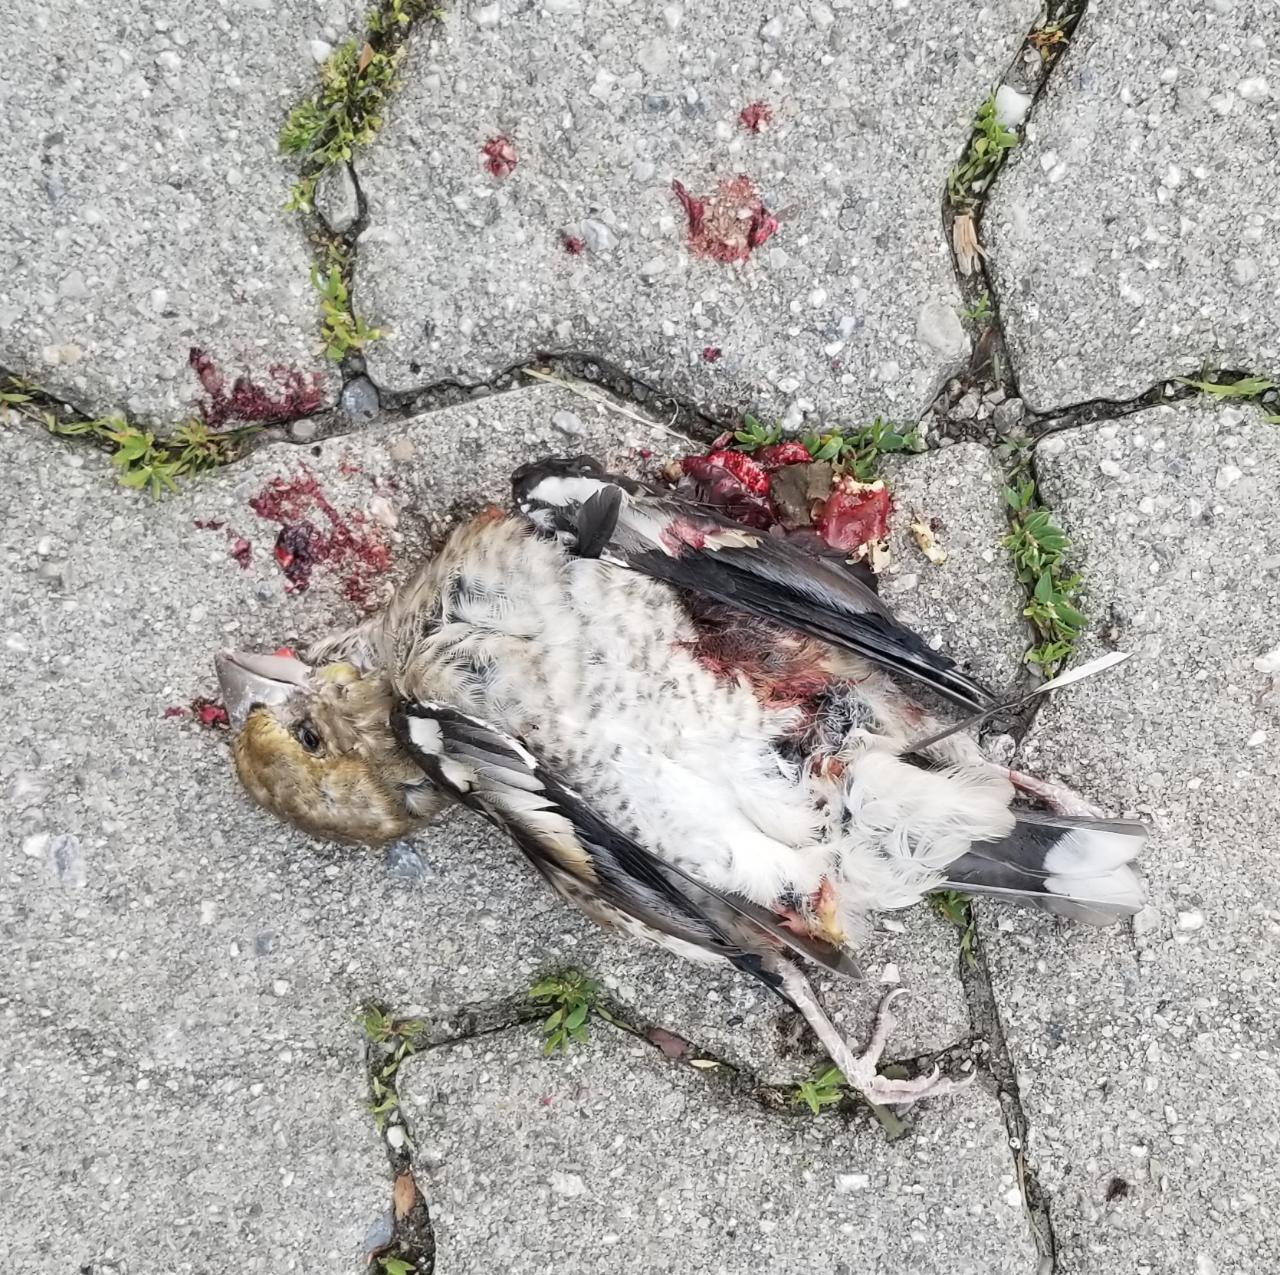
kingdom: Animalia
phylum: Chordata
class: Aves
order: Passeriformes
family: Fringillidae
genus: Coccothraustes
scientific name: Coccothraustes coccothraustes
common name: Hawfinch
